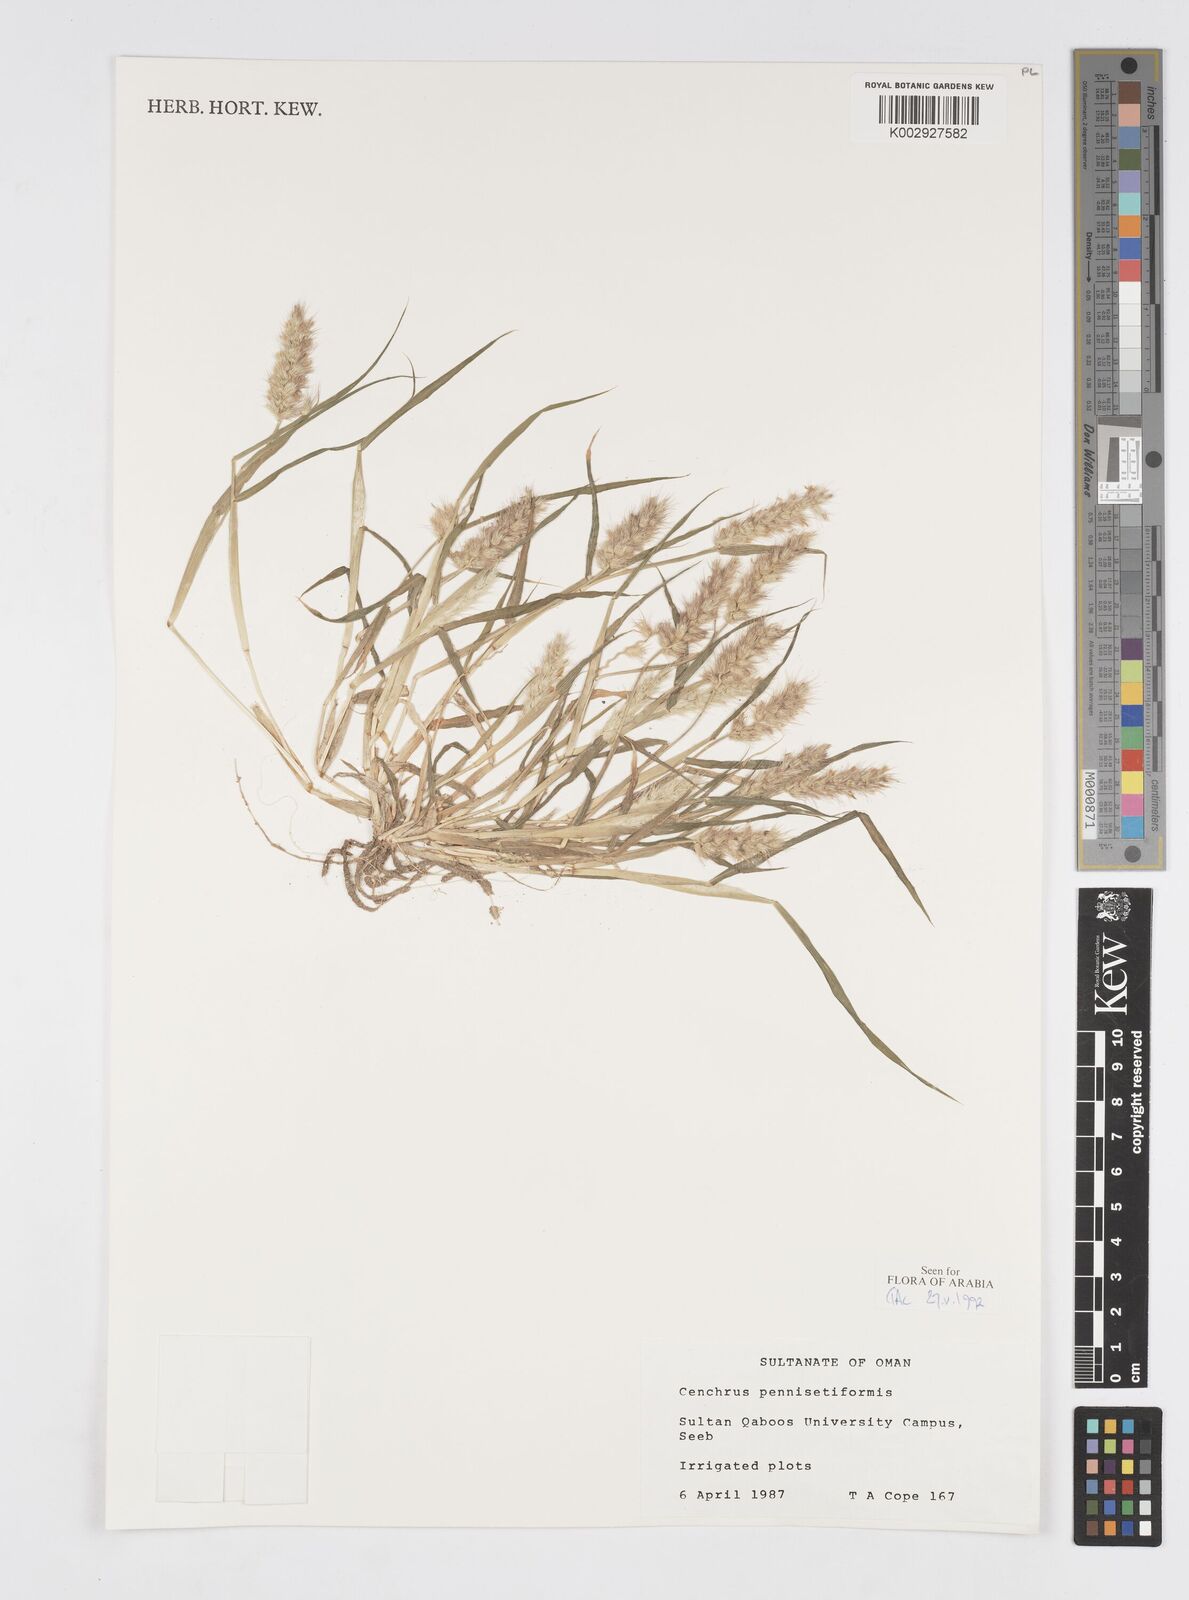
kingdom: Plantae
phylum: Tracheophyta
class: Liliopsida
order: Poales
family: Poaceae
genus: Cenchrus
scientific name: Cenchrus pennisetiformis
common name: Cloncurry
